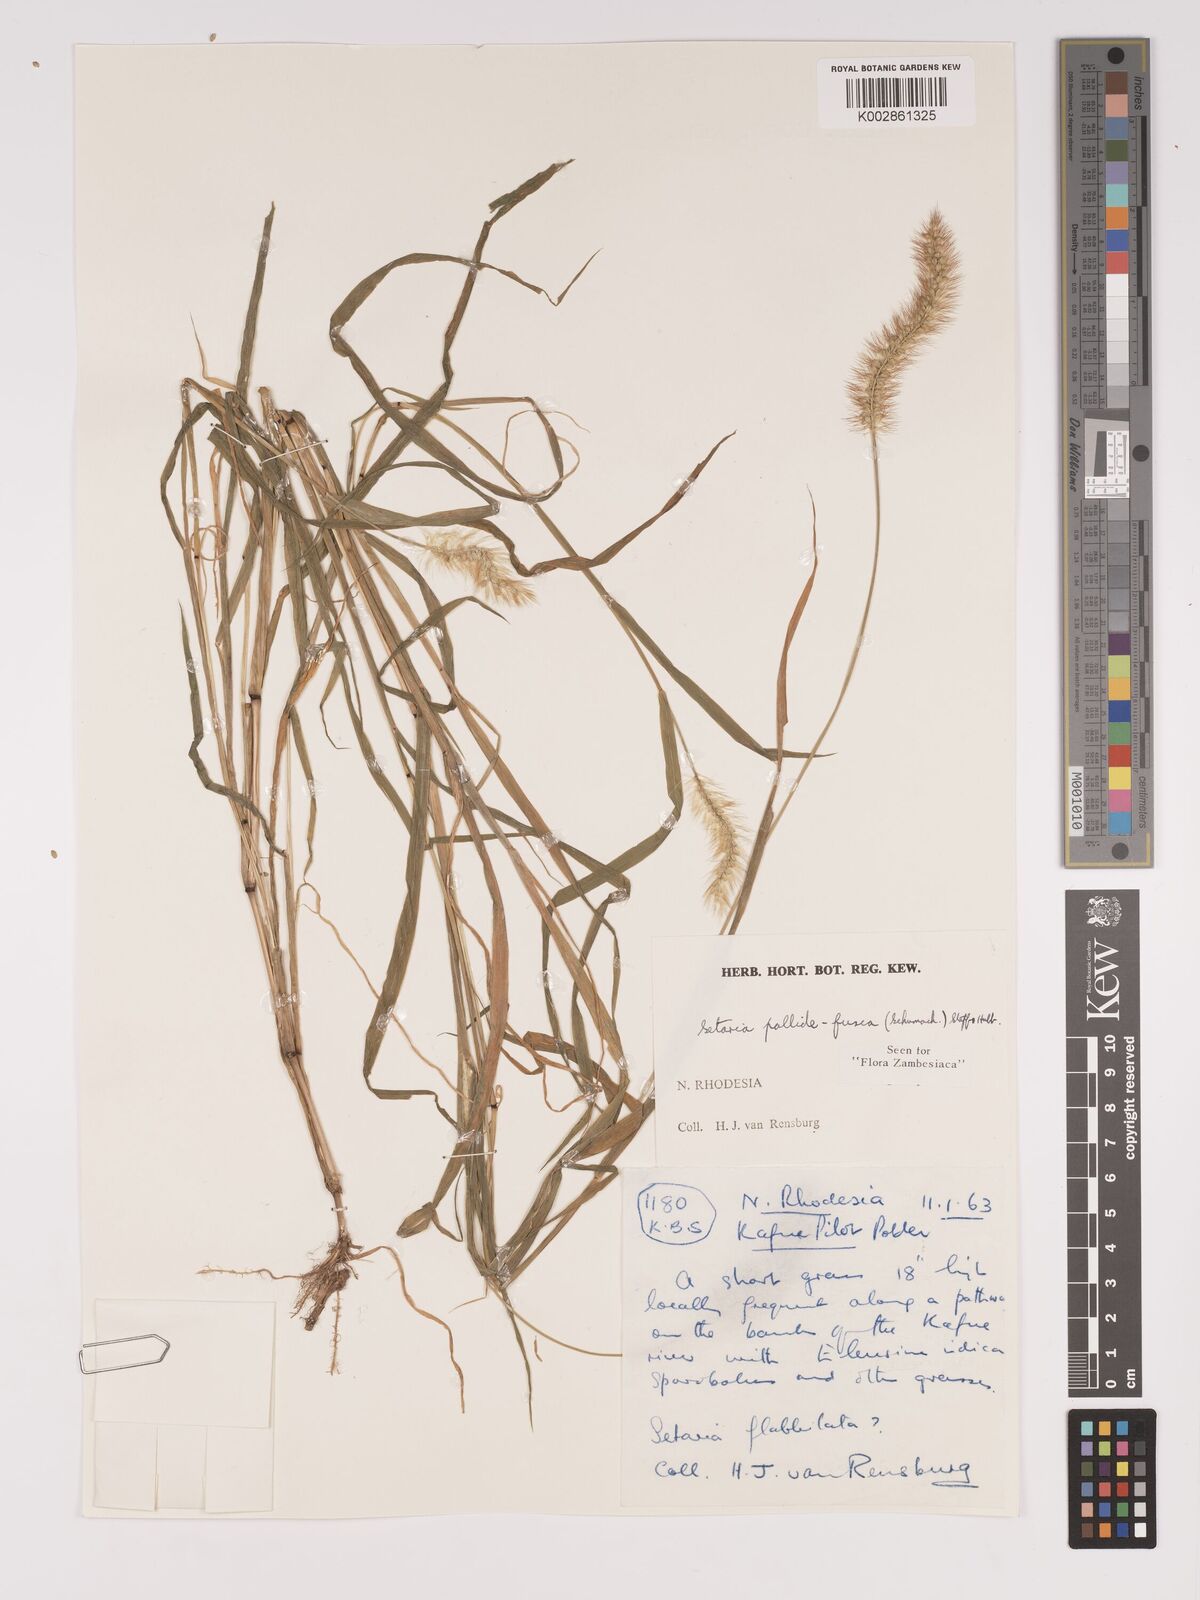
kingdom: Plantae
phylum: Tracheophyta
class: Liliopsida
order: Poales
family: Poaceae
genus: Setaria
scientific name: Setaria pumila
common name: Yellow bristle-grass
